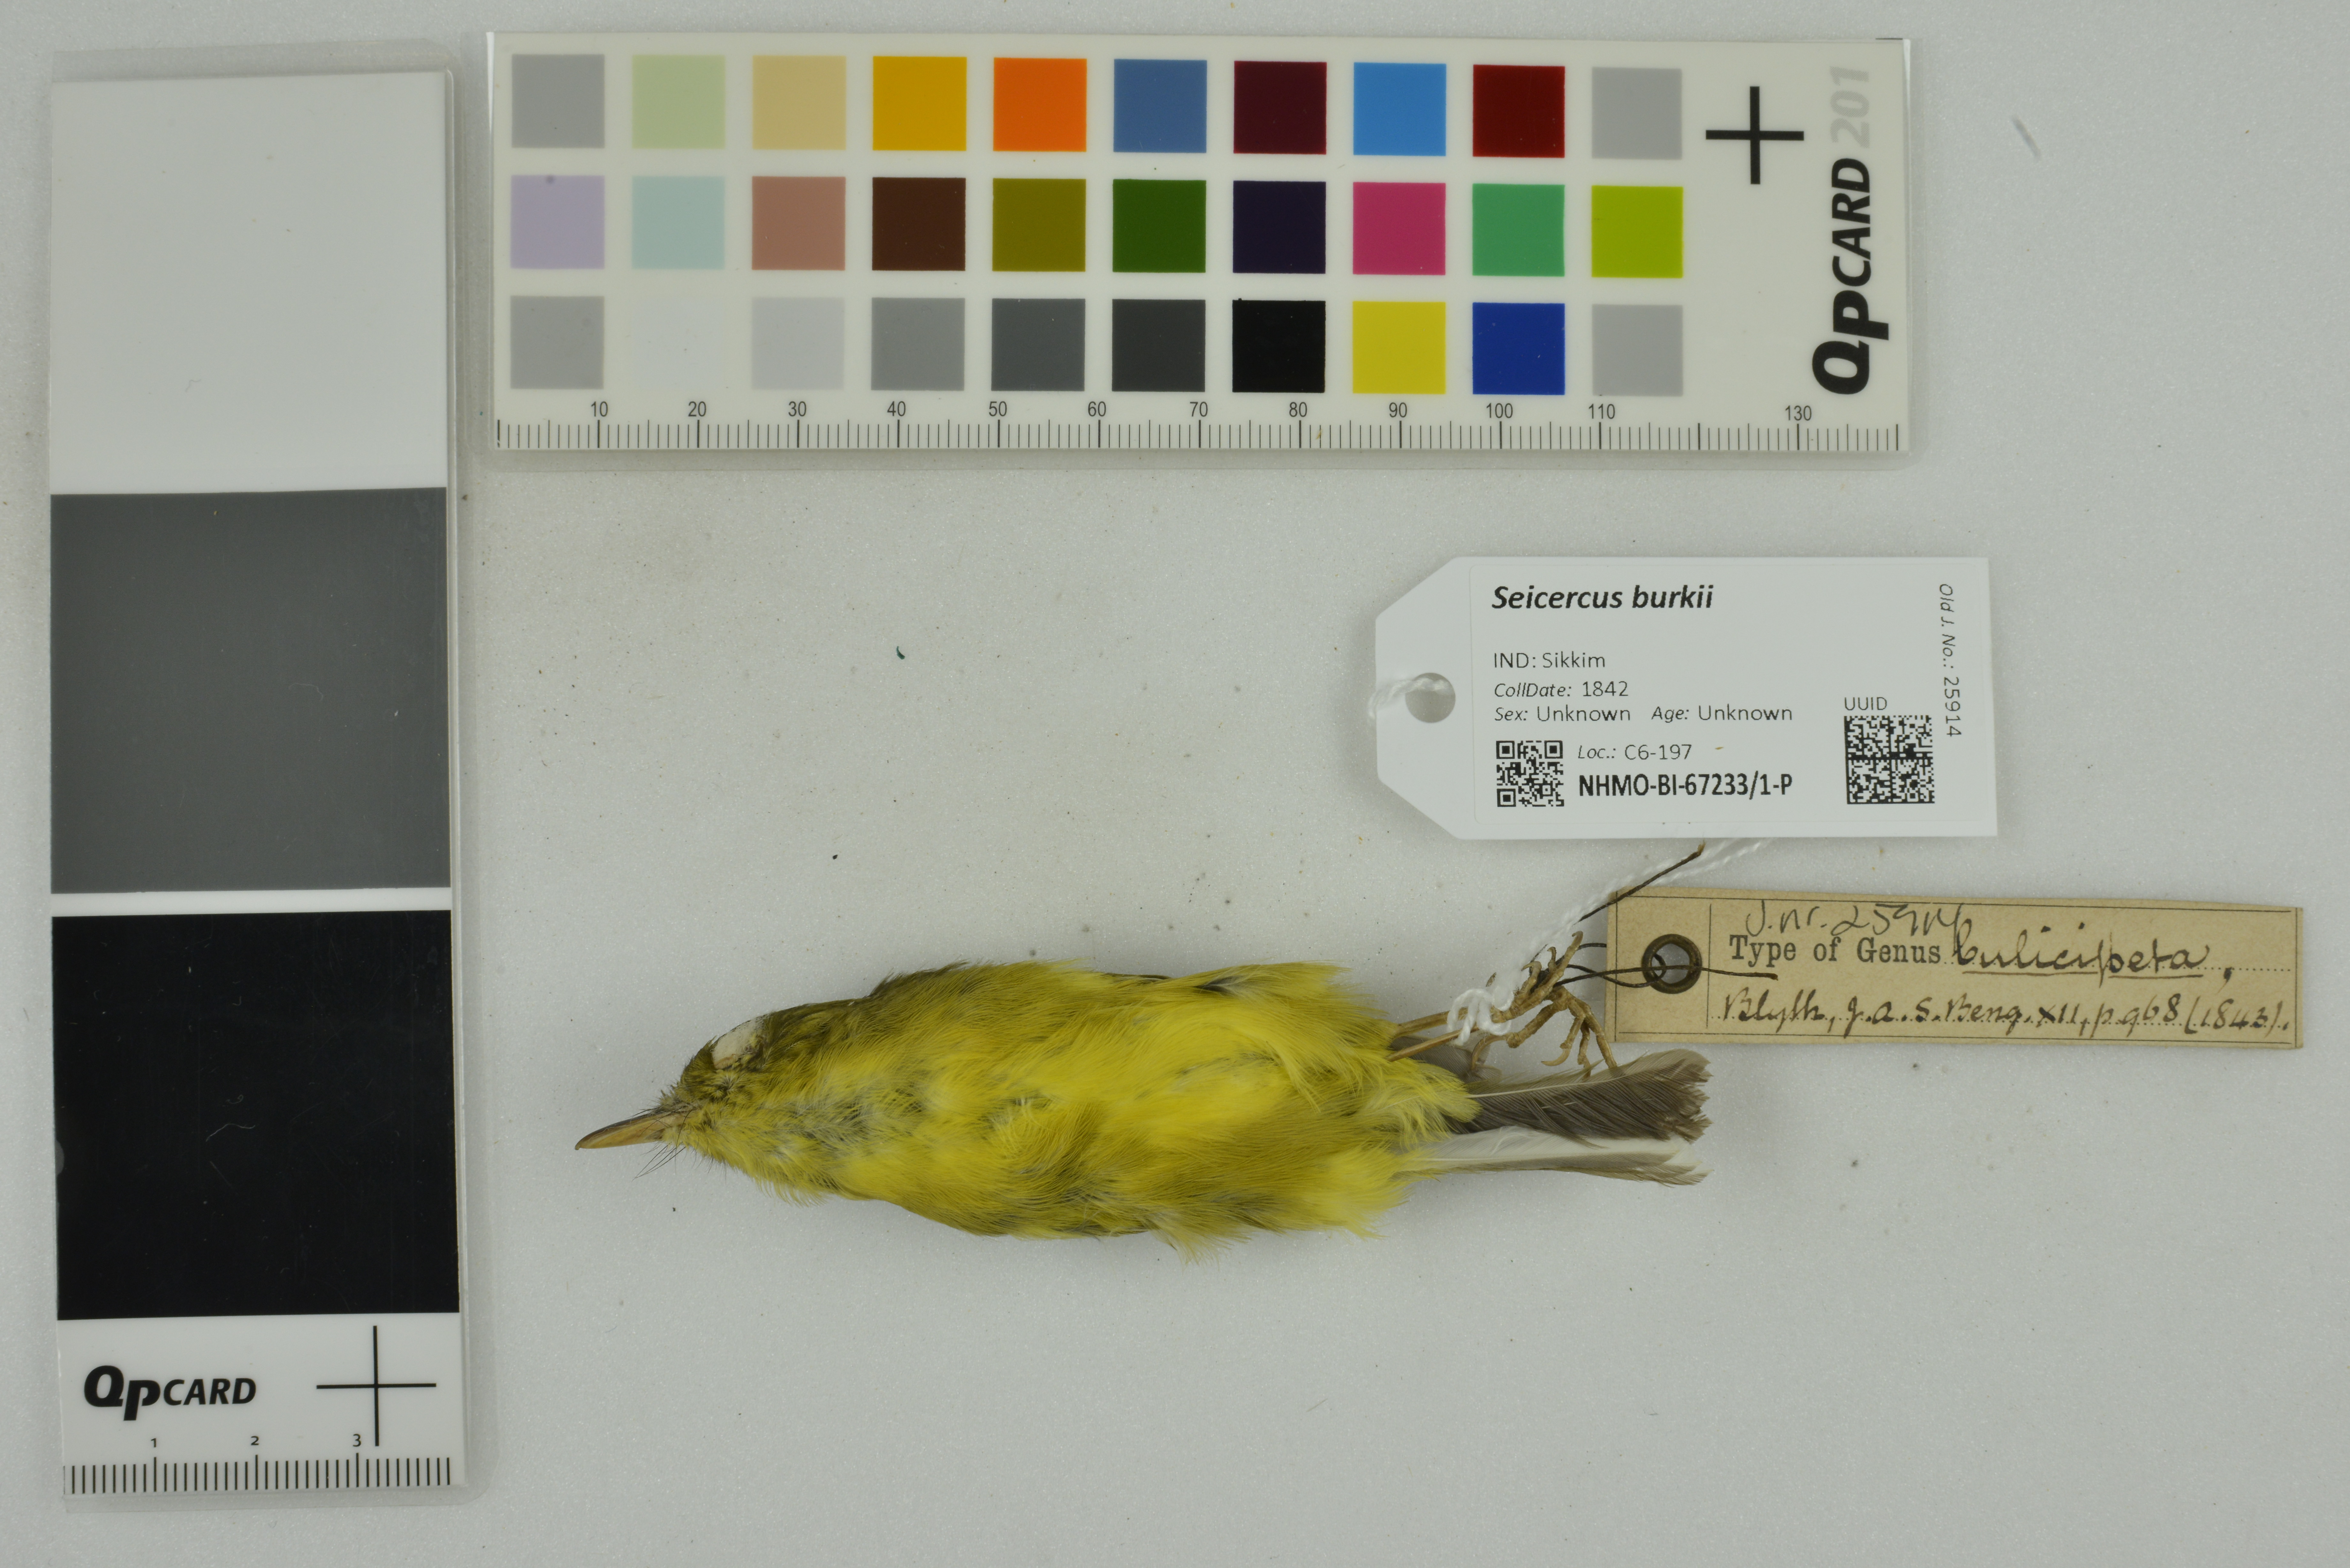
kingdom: Animalia
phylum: Chordata
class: Aves
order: Passeriformes
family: Phylloscopidae
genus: Seicercus
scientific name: Seicercus burkii
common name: Green-crowned warbler
